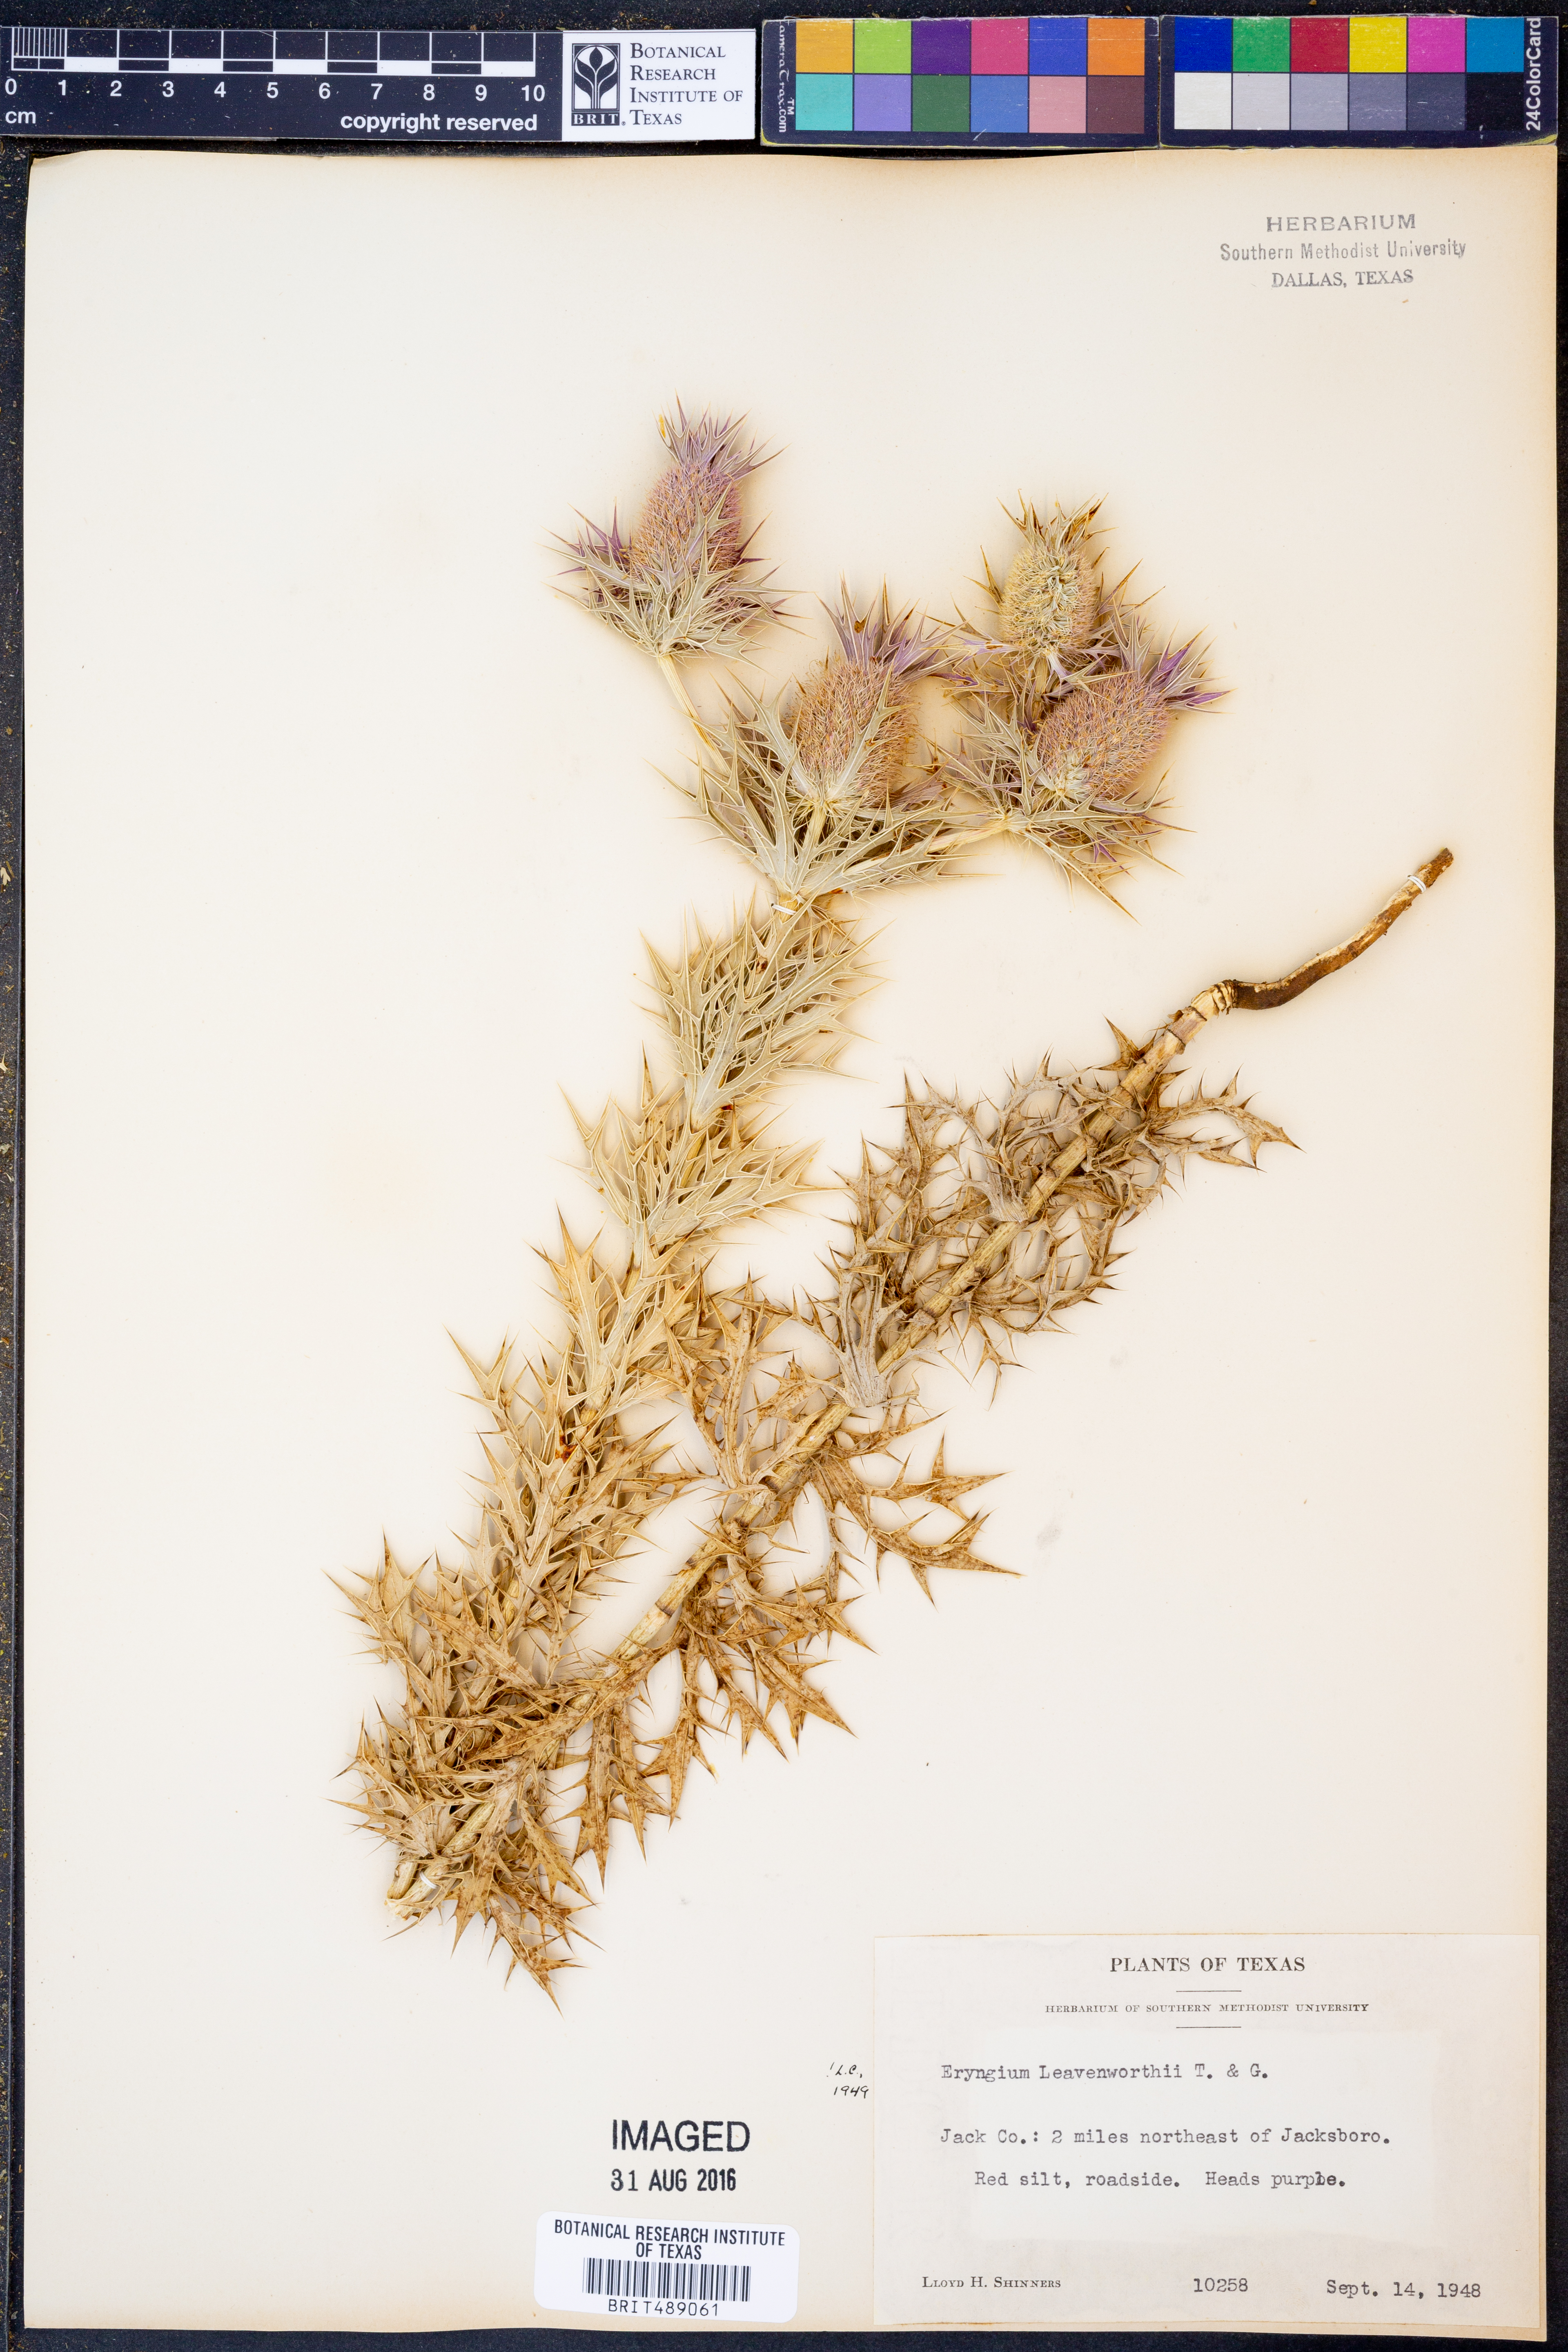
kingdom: Plantae
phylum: Tracheophyta
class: Magnoliopsida
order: Apiales
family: Apiaceae
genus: Eryngium
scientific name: Eryngium leavenworthii
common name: Leavenworth's eryngo
